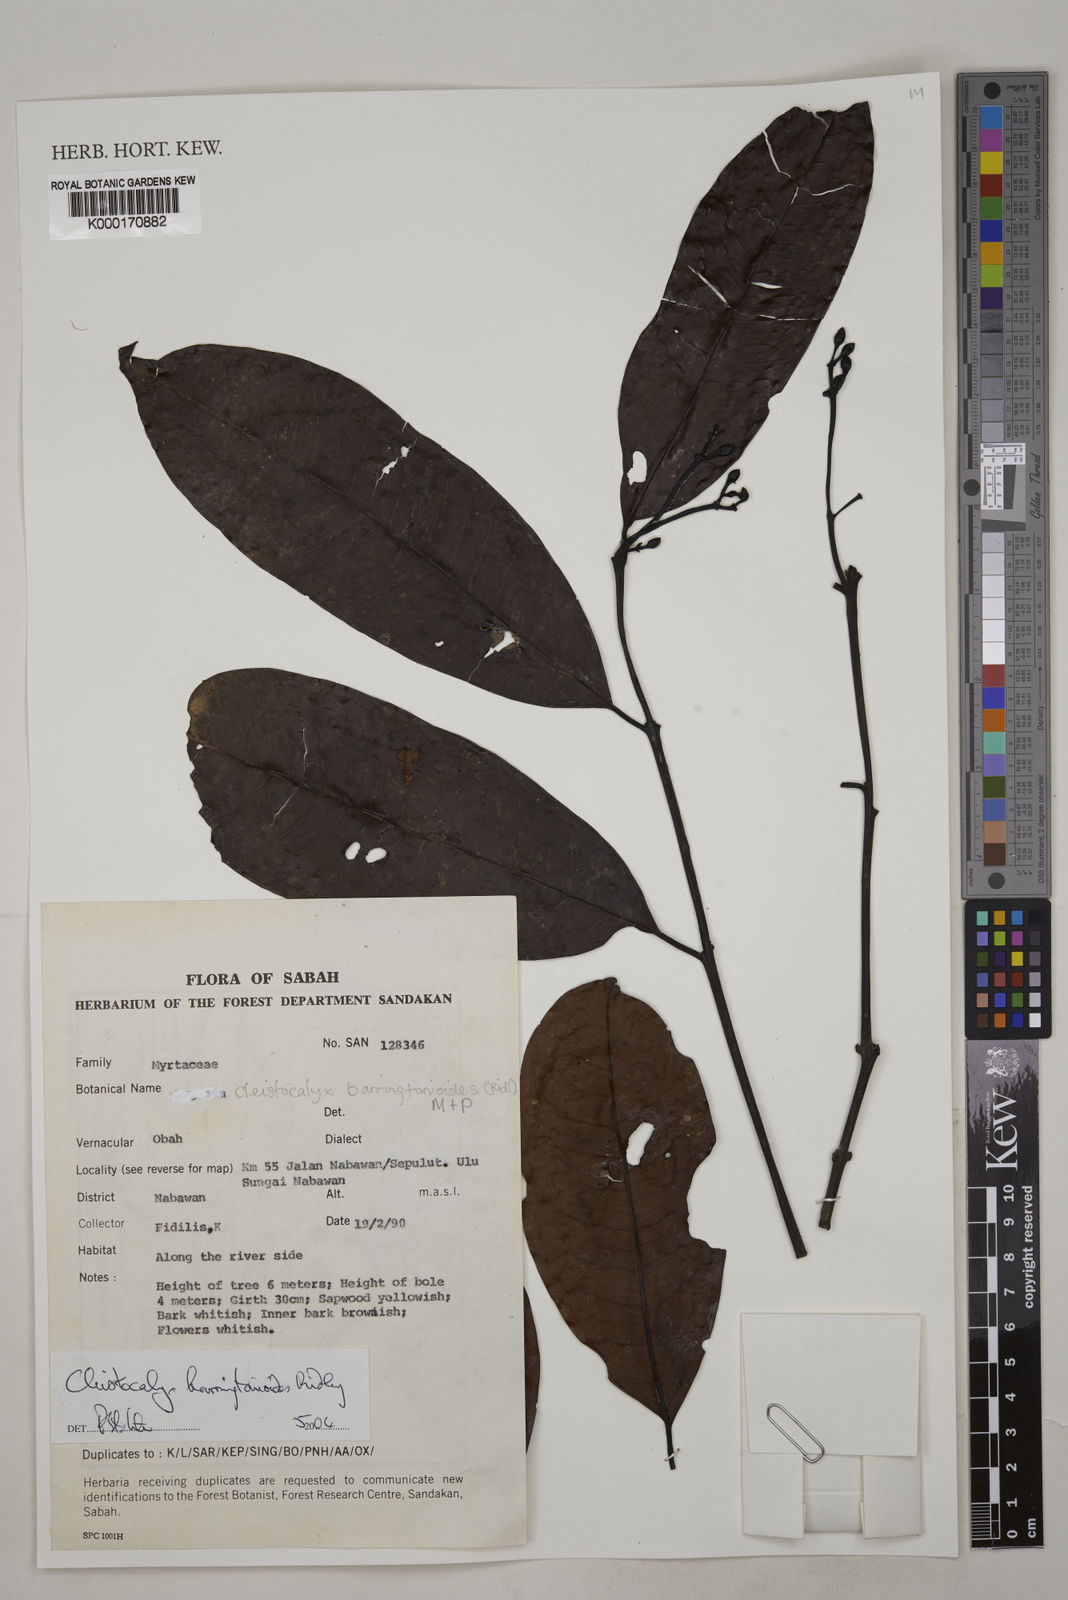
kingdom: Plantae
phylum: Tracheophyta
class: Magnoliopsida
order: Myrtales
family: Myrtaceae
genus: Syzygium
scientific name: Syzygium
